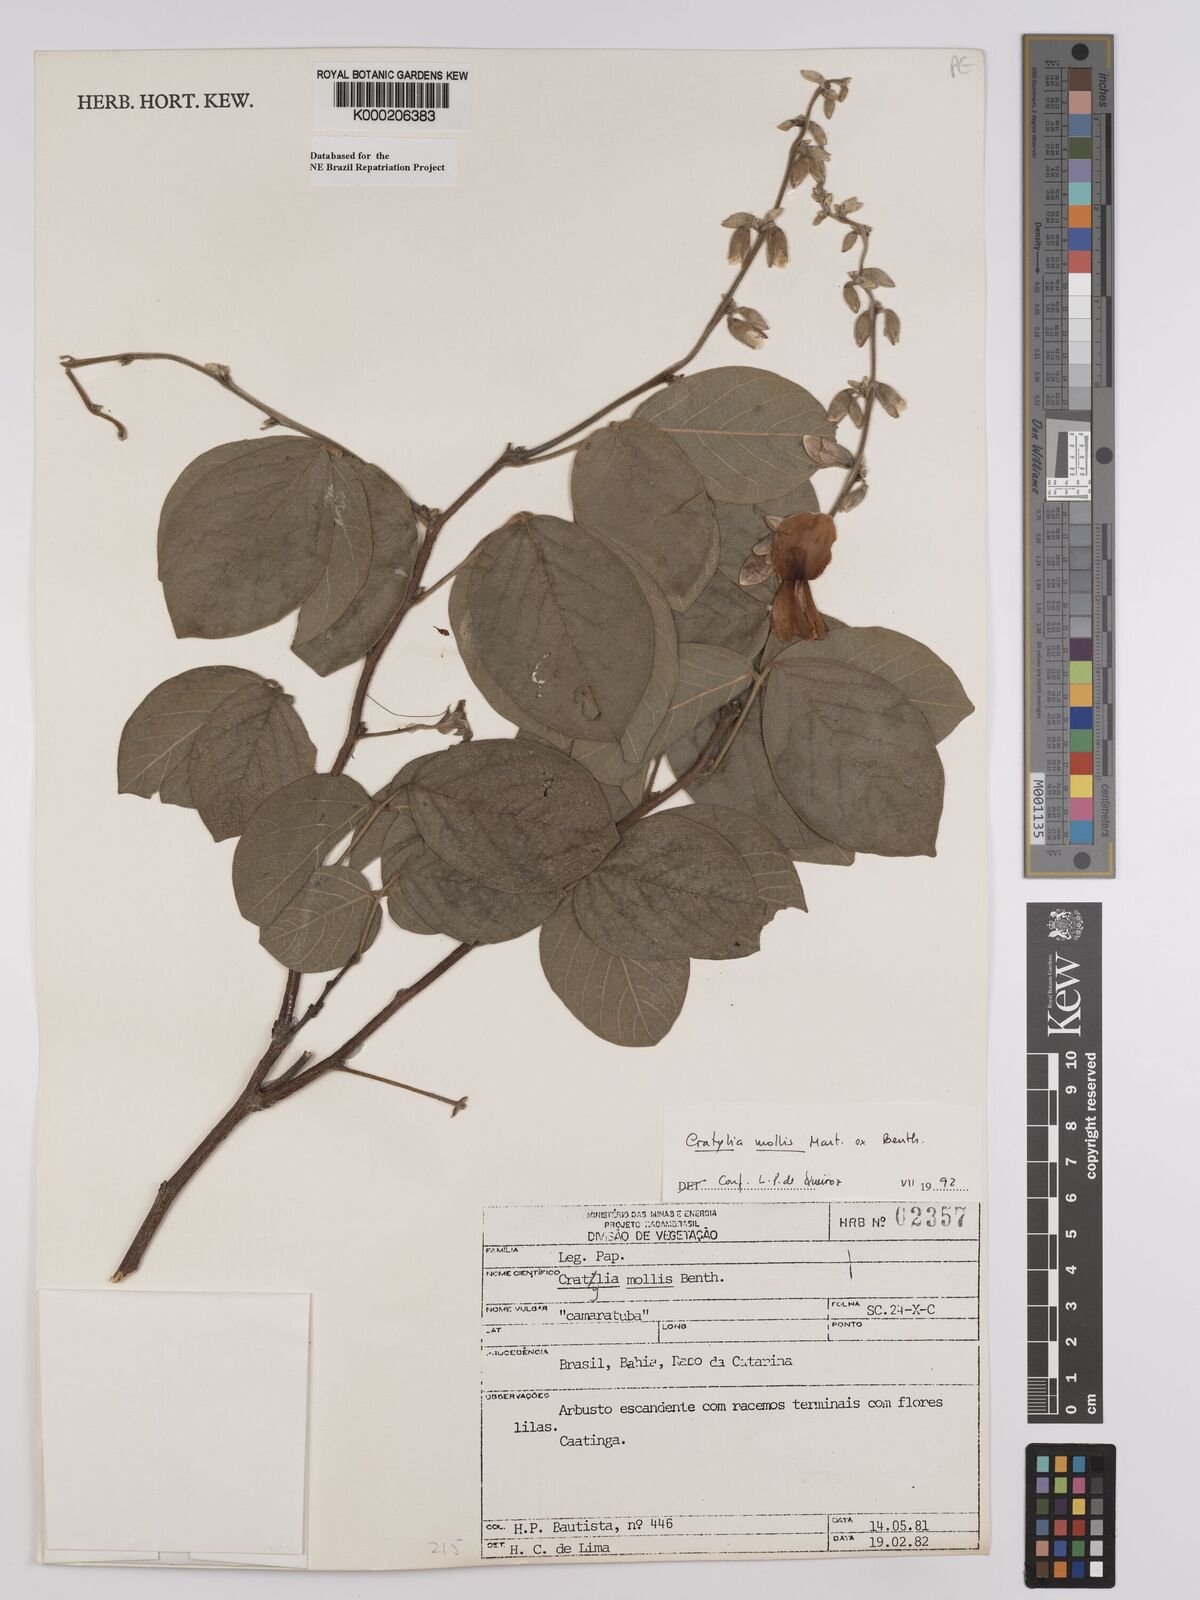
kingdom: Plantae
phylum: Tracheophyta
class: Magnoliopsida
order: Fabales
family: Fabaceae
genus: Cratylia
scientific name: Cratylia mollis
